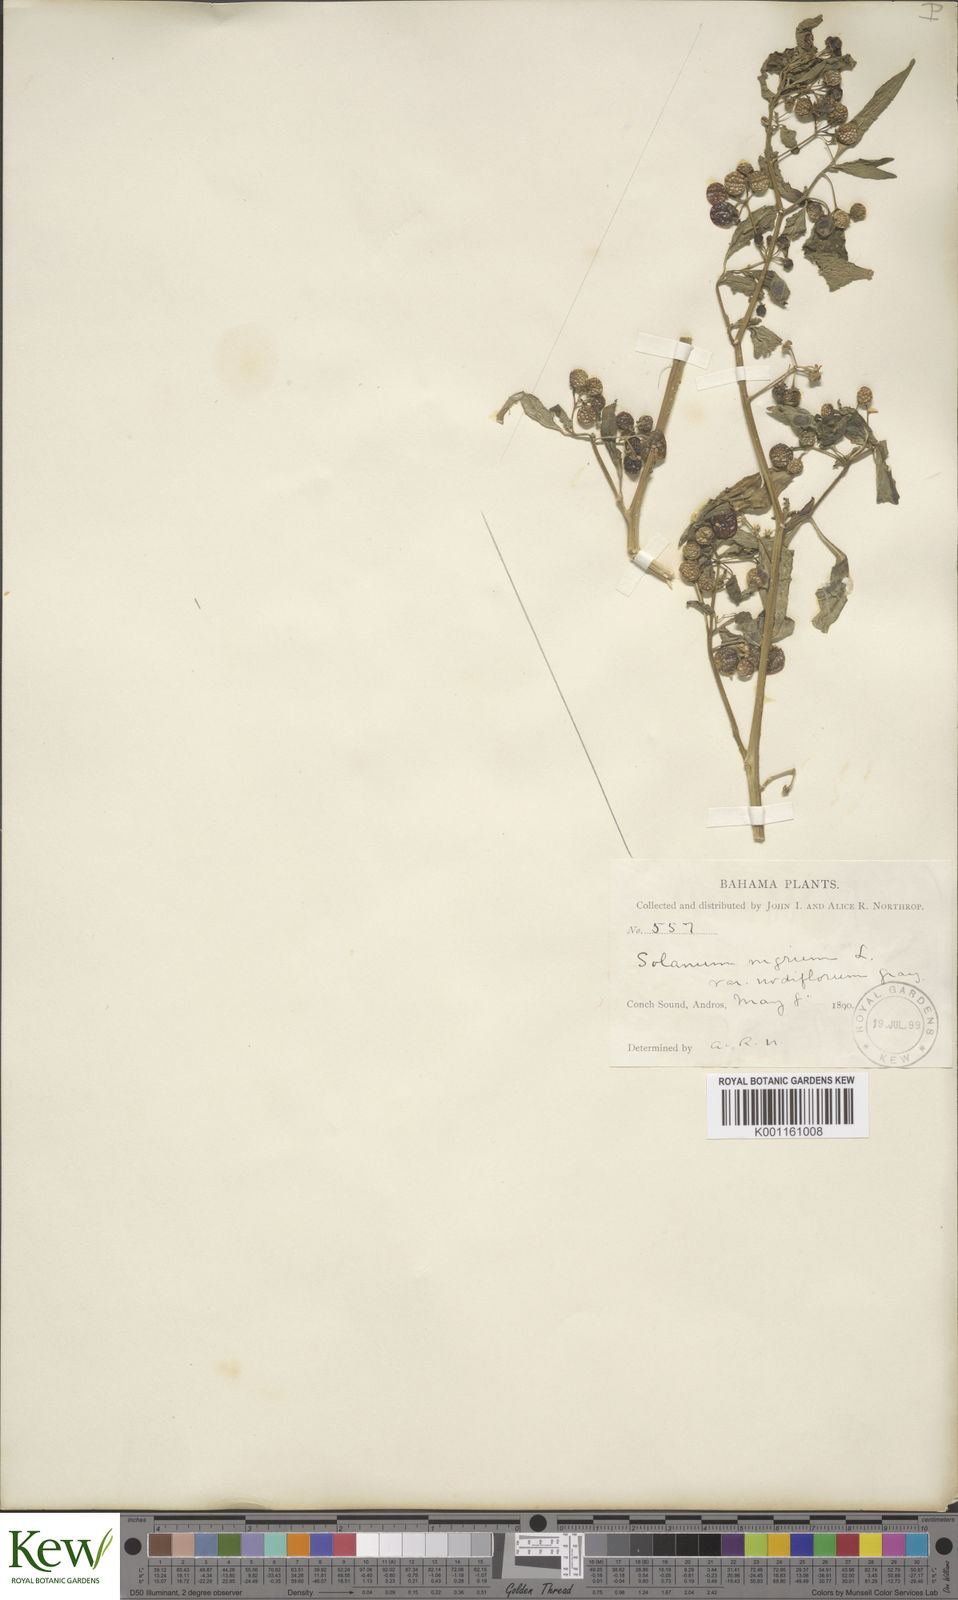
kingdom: Plantae
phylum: Tracheophyta
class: Magnoliopsida
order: Solanales
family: Solanaceae
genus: Solanum
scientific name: Solanum americanum
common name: American black nightshade
